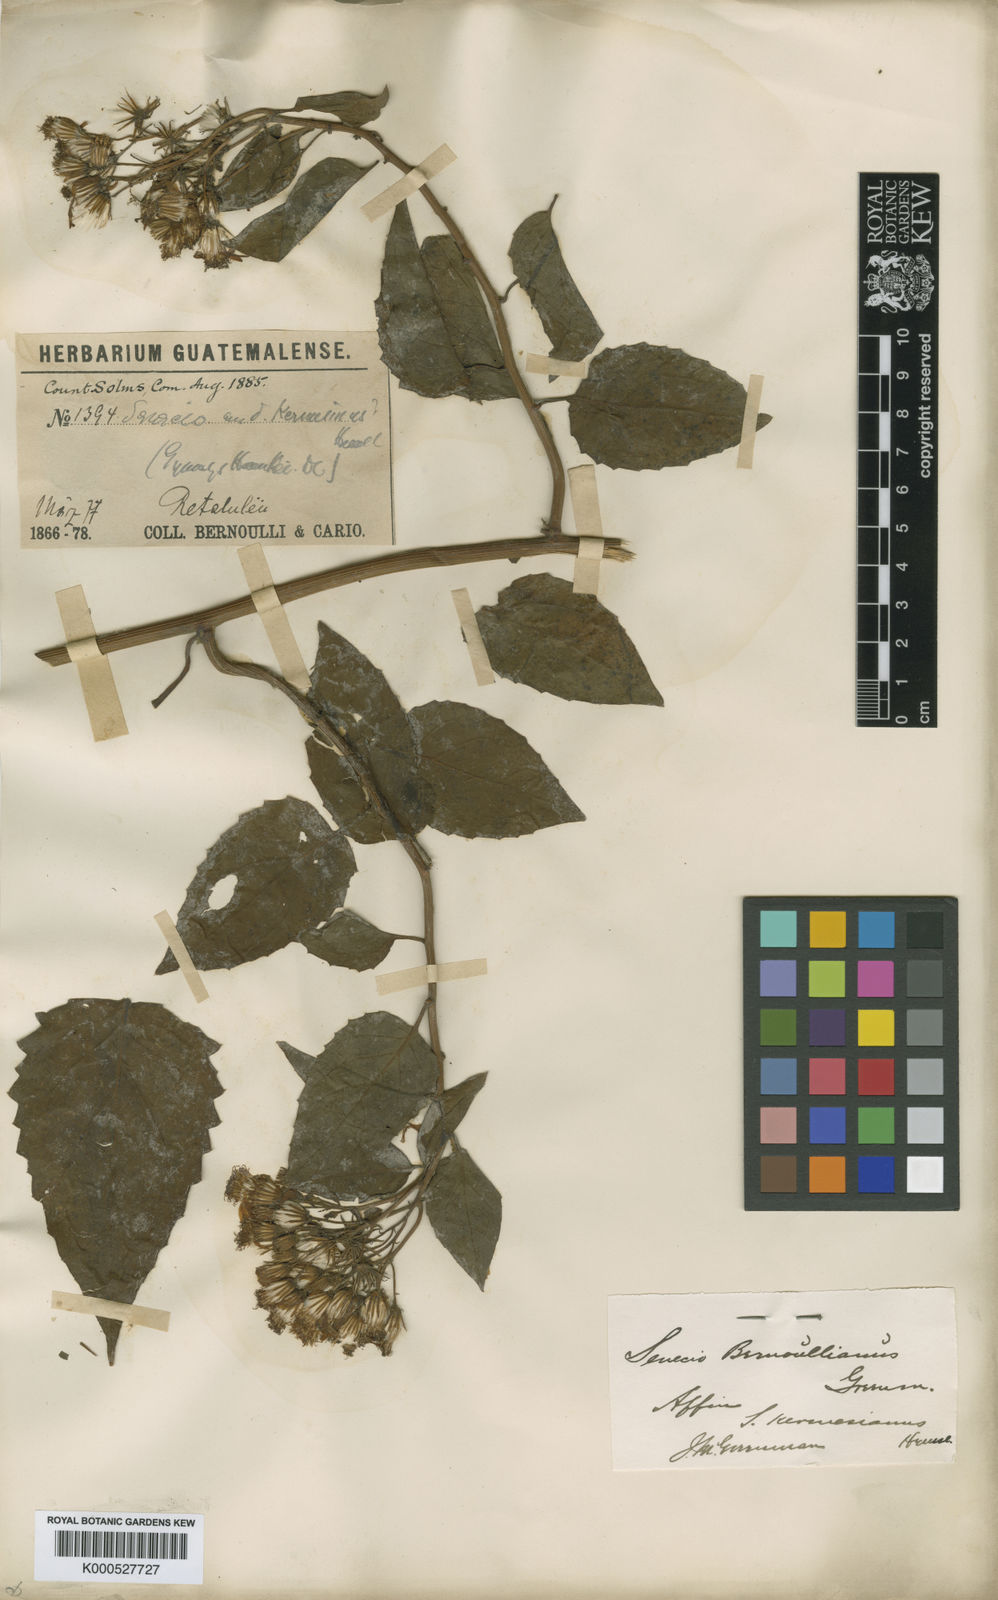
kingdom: Plantae
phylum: Tracheophyta
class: Magnoliopsida
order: Asterales
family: Asteraceae
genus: Pseudogynoxys
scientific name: Pseudogynoxys chenopodioides
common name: Mexican flamevine
